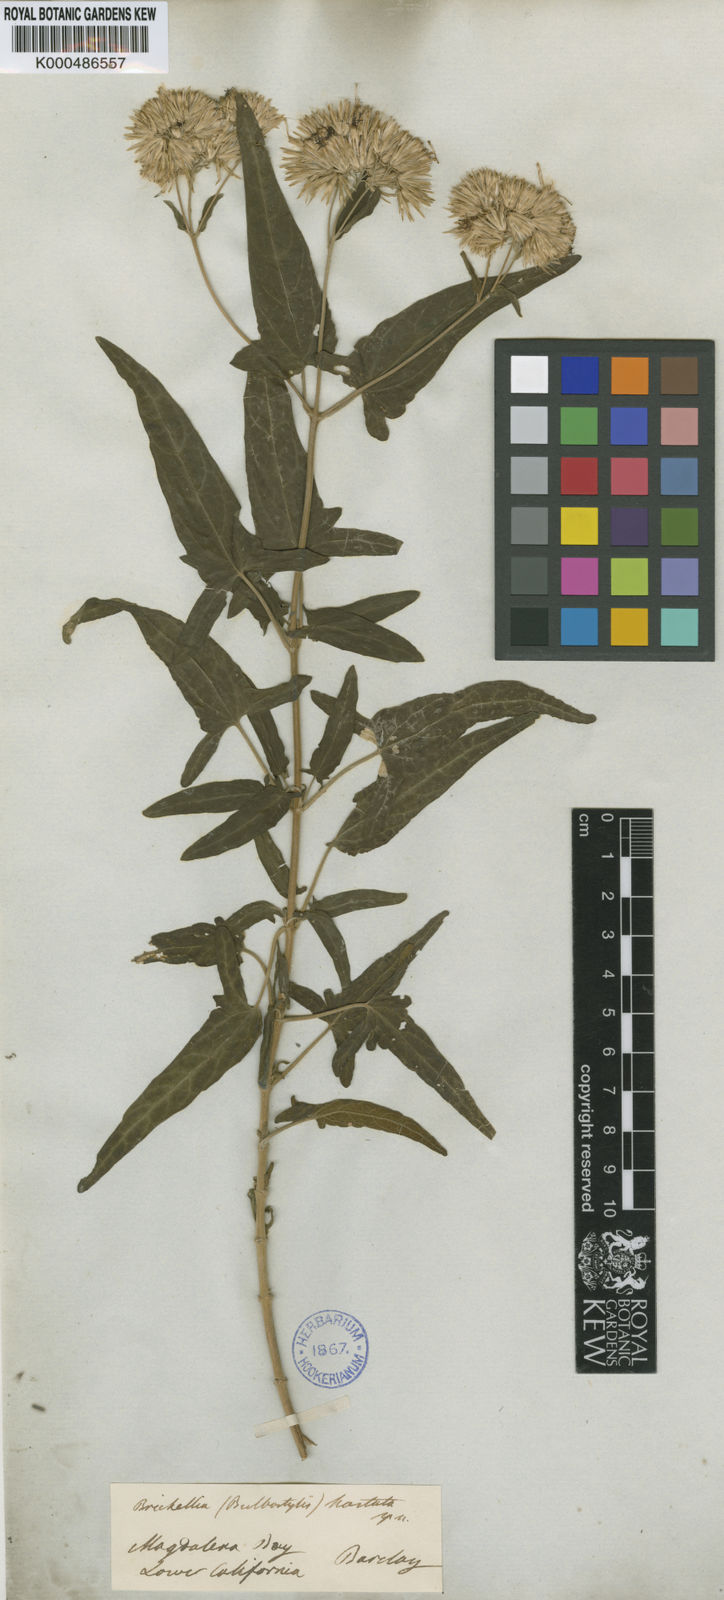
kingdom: Plantae
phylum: Tracheophyta
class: Magnoliopsida
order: Asterales
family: Asteraceae
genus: Brickellia
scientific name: Brickellia hastata
